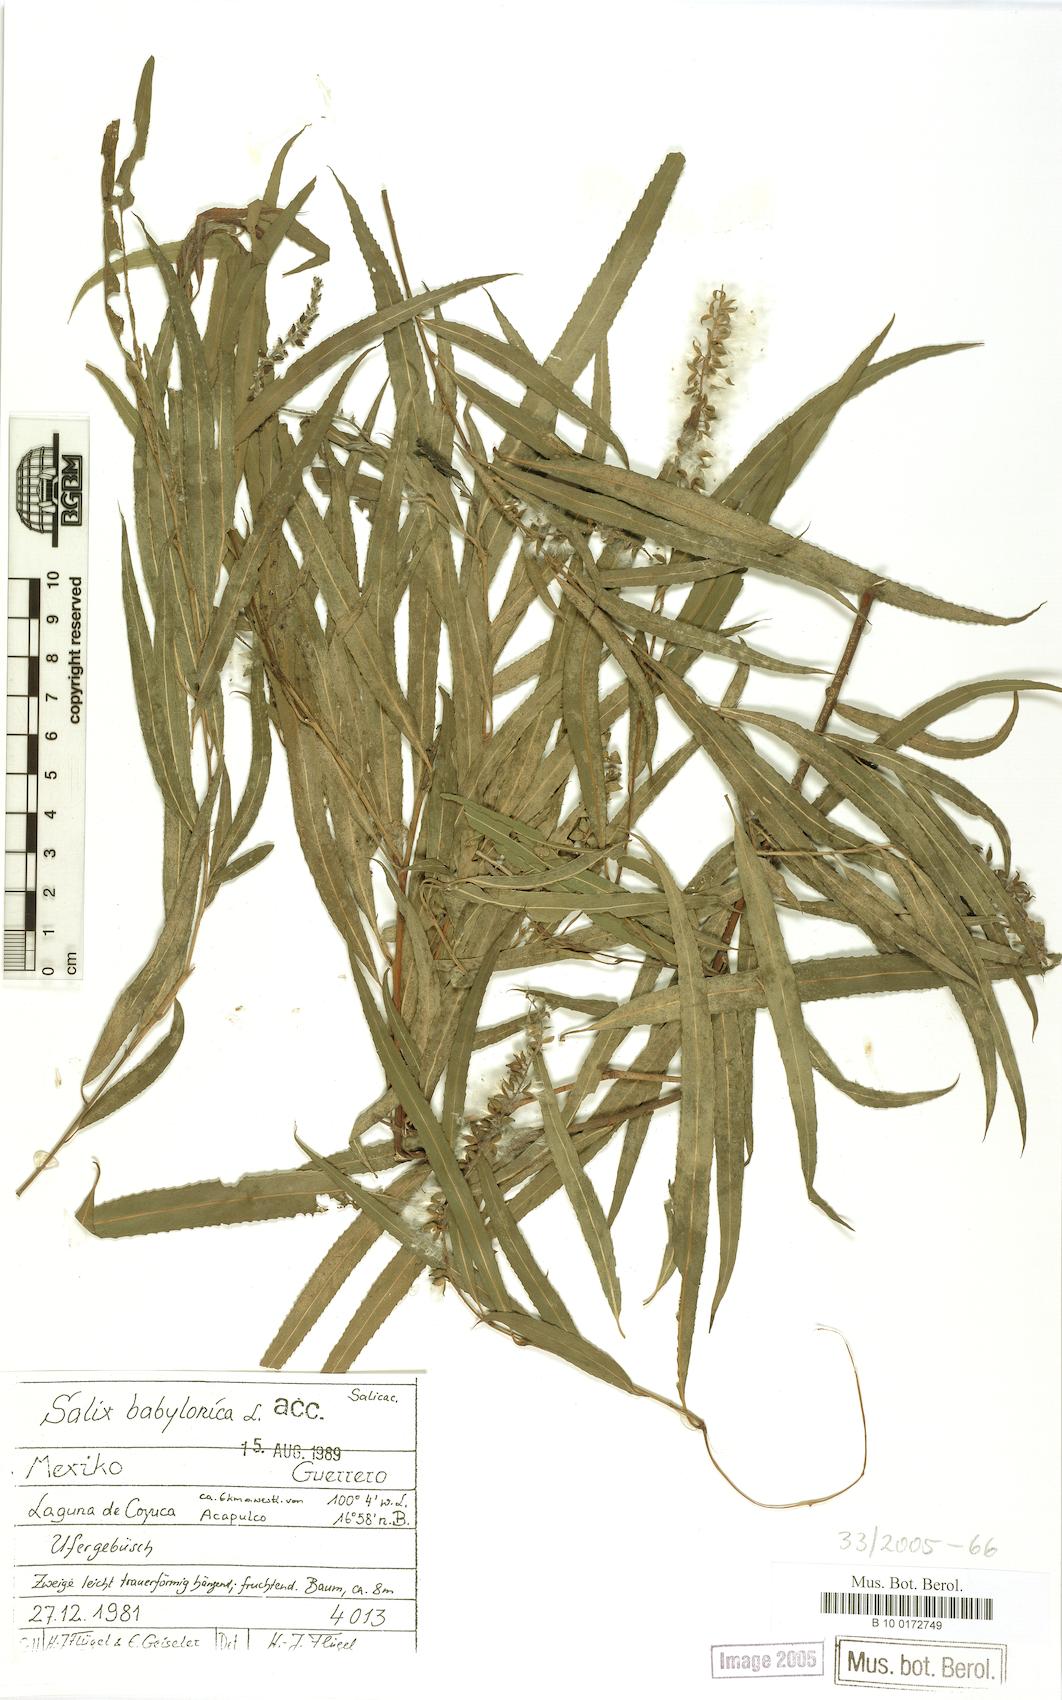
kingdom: Plantae
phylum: Tracheophyta
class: Magnoliopsida
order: Malpighiales
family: Salicaceae
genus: Salix
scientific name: Salix humboldtiana
